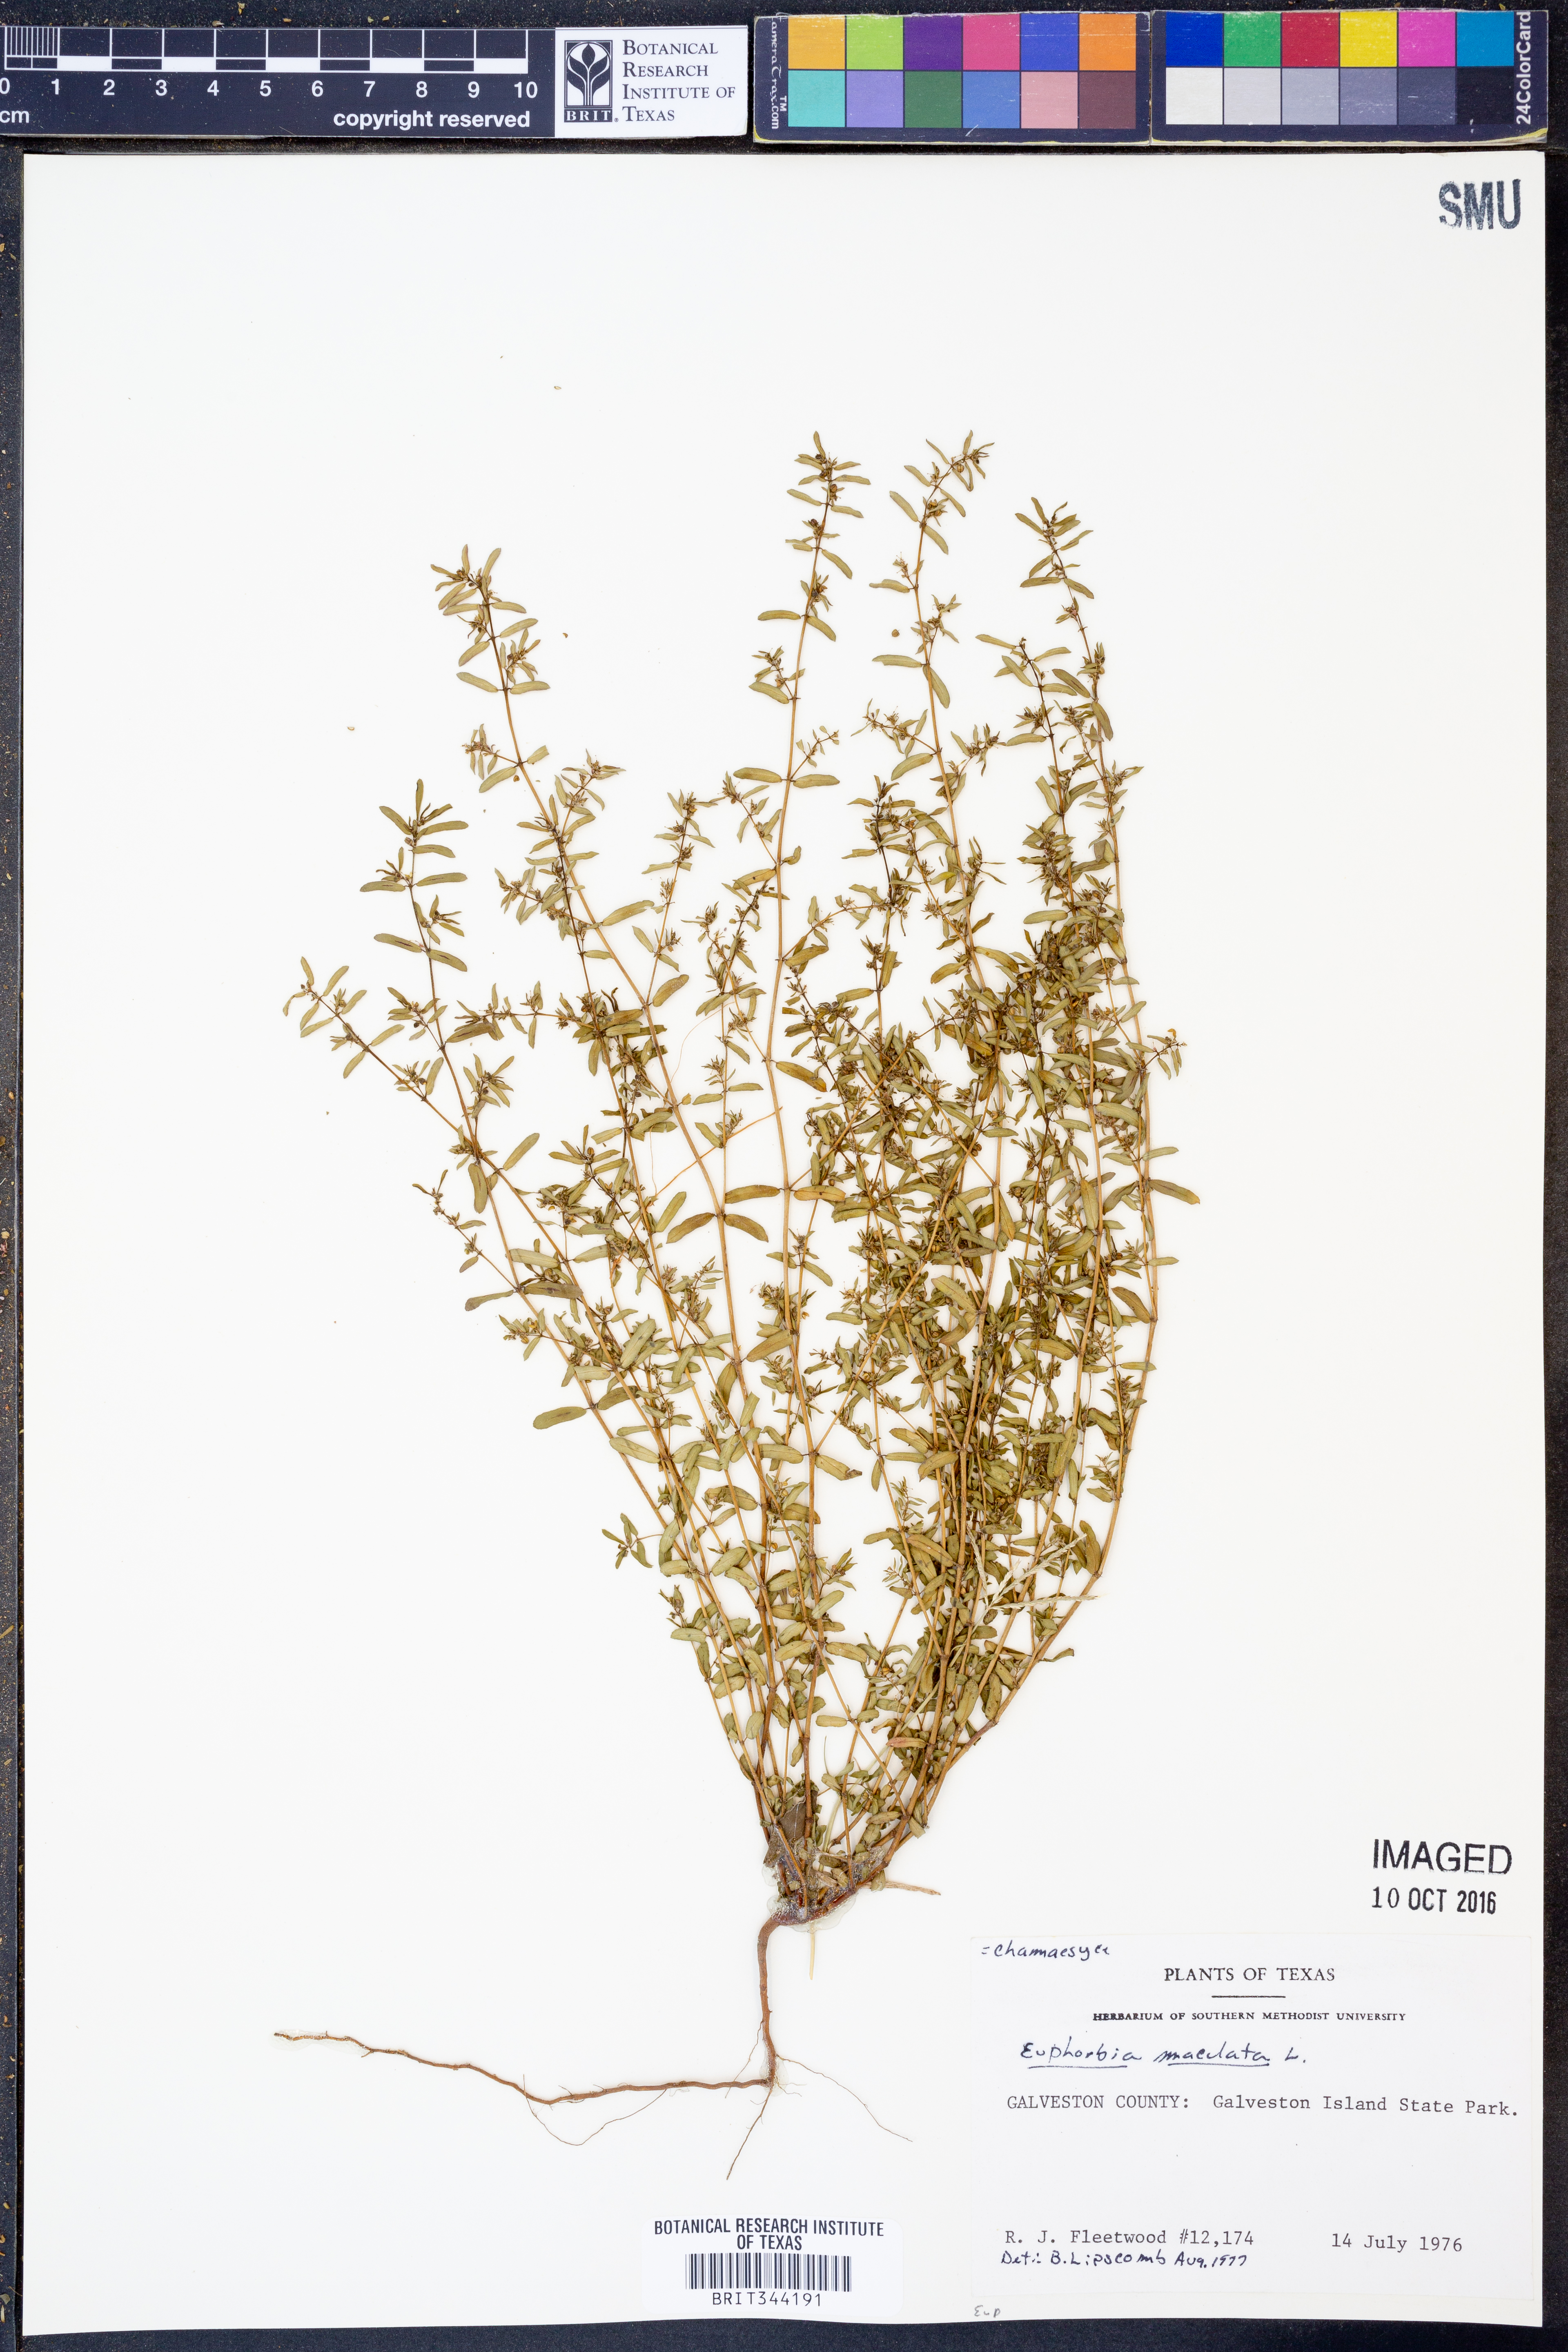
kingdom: Plantae
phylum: Tracheophyta
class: Magnoliopsida
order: Malpighiales
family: Euphorbiaceae
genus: Euphorbia
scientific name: Euphorbia maculata
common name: Spotted spurge
